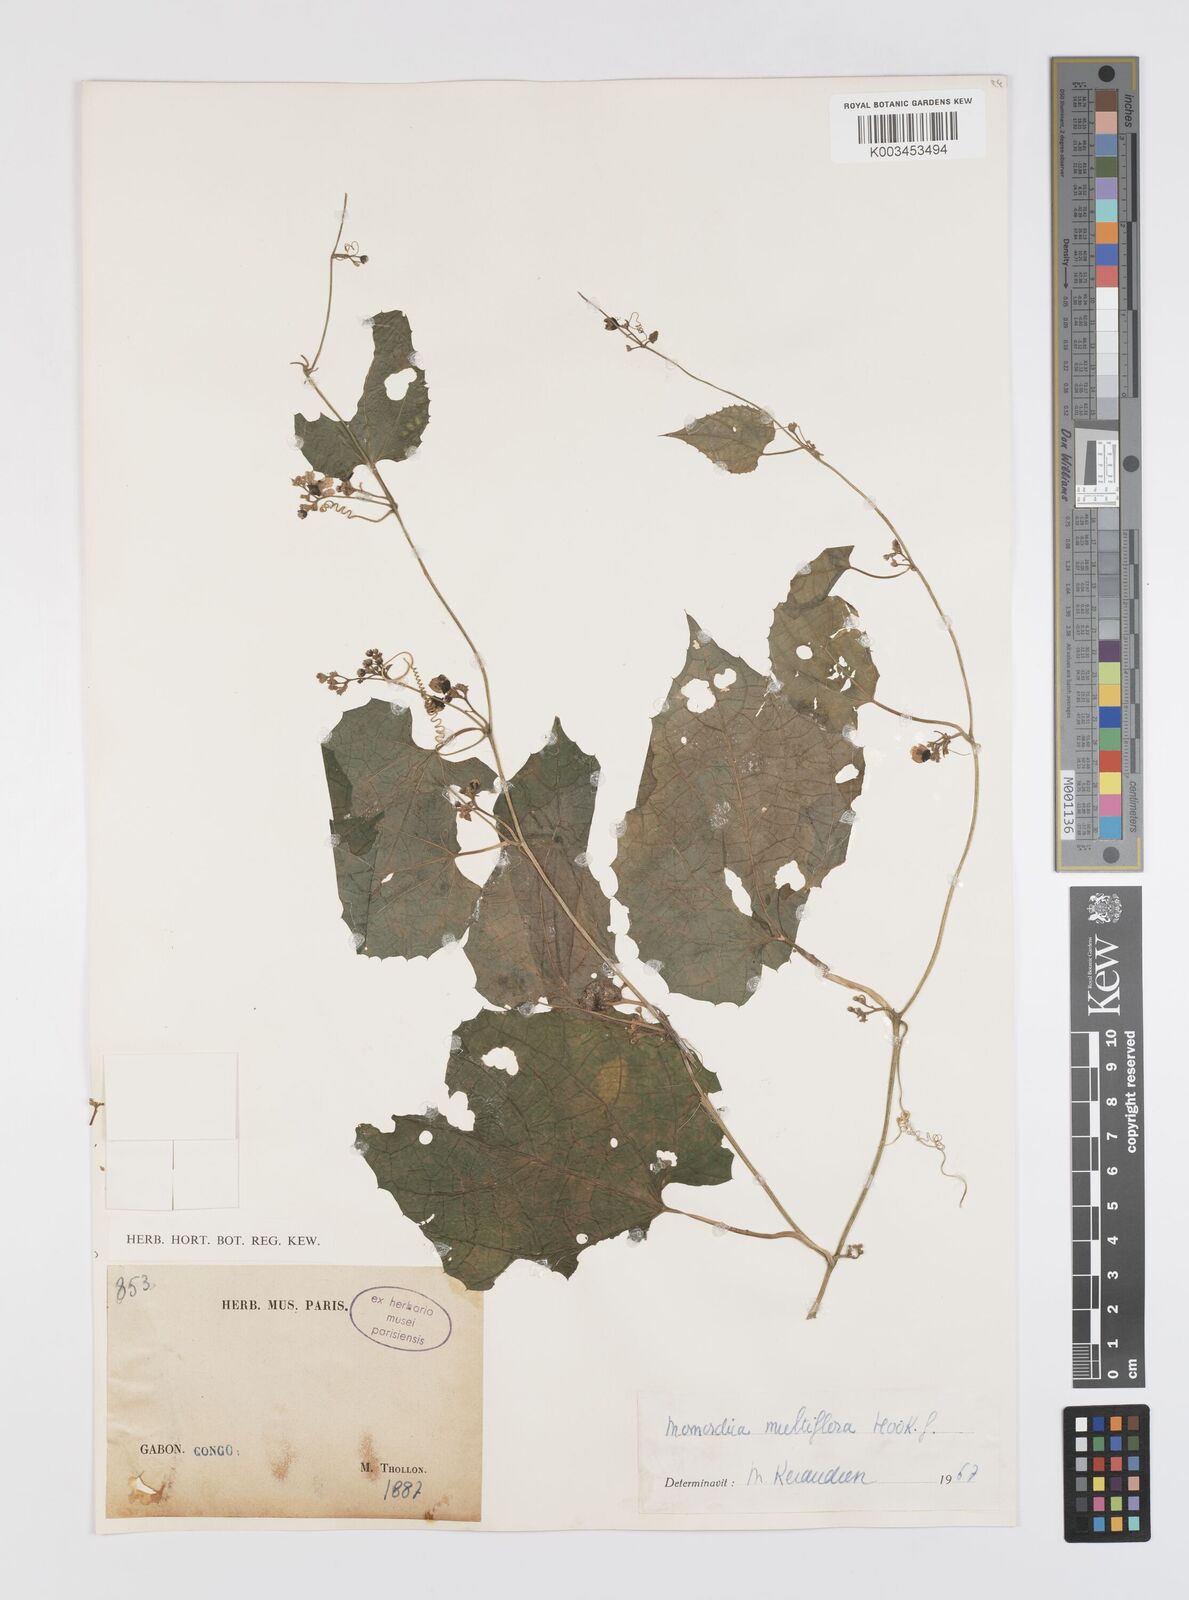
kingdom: Plantae
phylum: Tracheophyta
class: Magnoliopsida
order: Cucurbitales
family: Cucurbitaceae
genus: Momordica
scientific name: Momordica multiflora
